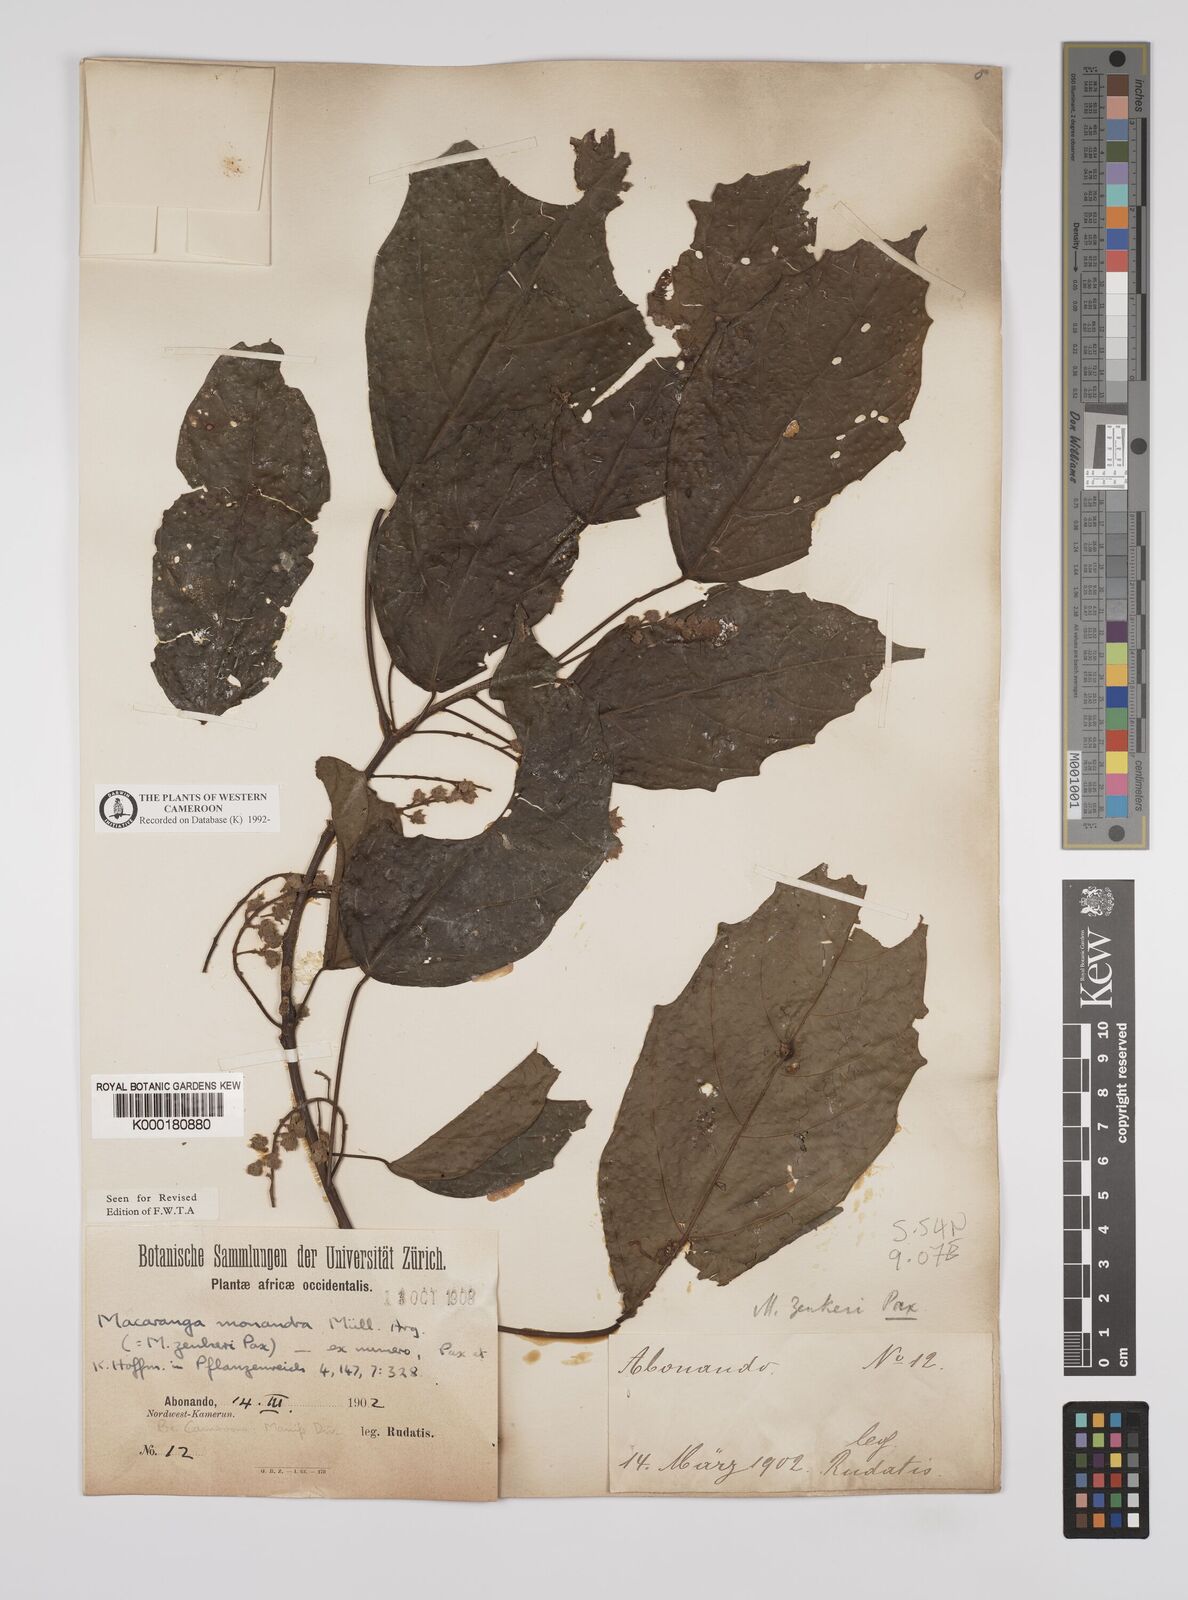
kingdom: Plantae
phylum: Tracheophyta
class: Magnoliopsida
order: Malpighiales
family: Euphorbiaceae
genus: Macaranga
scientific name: Macaranga
